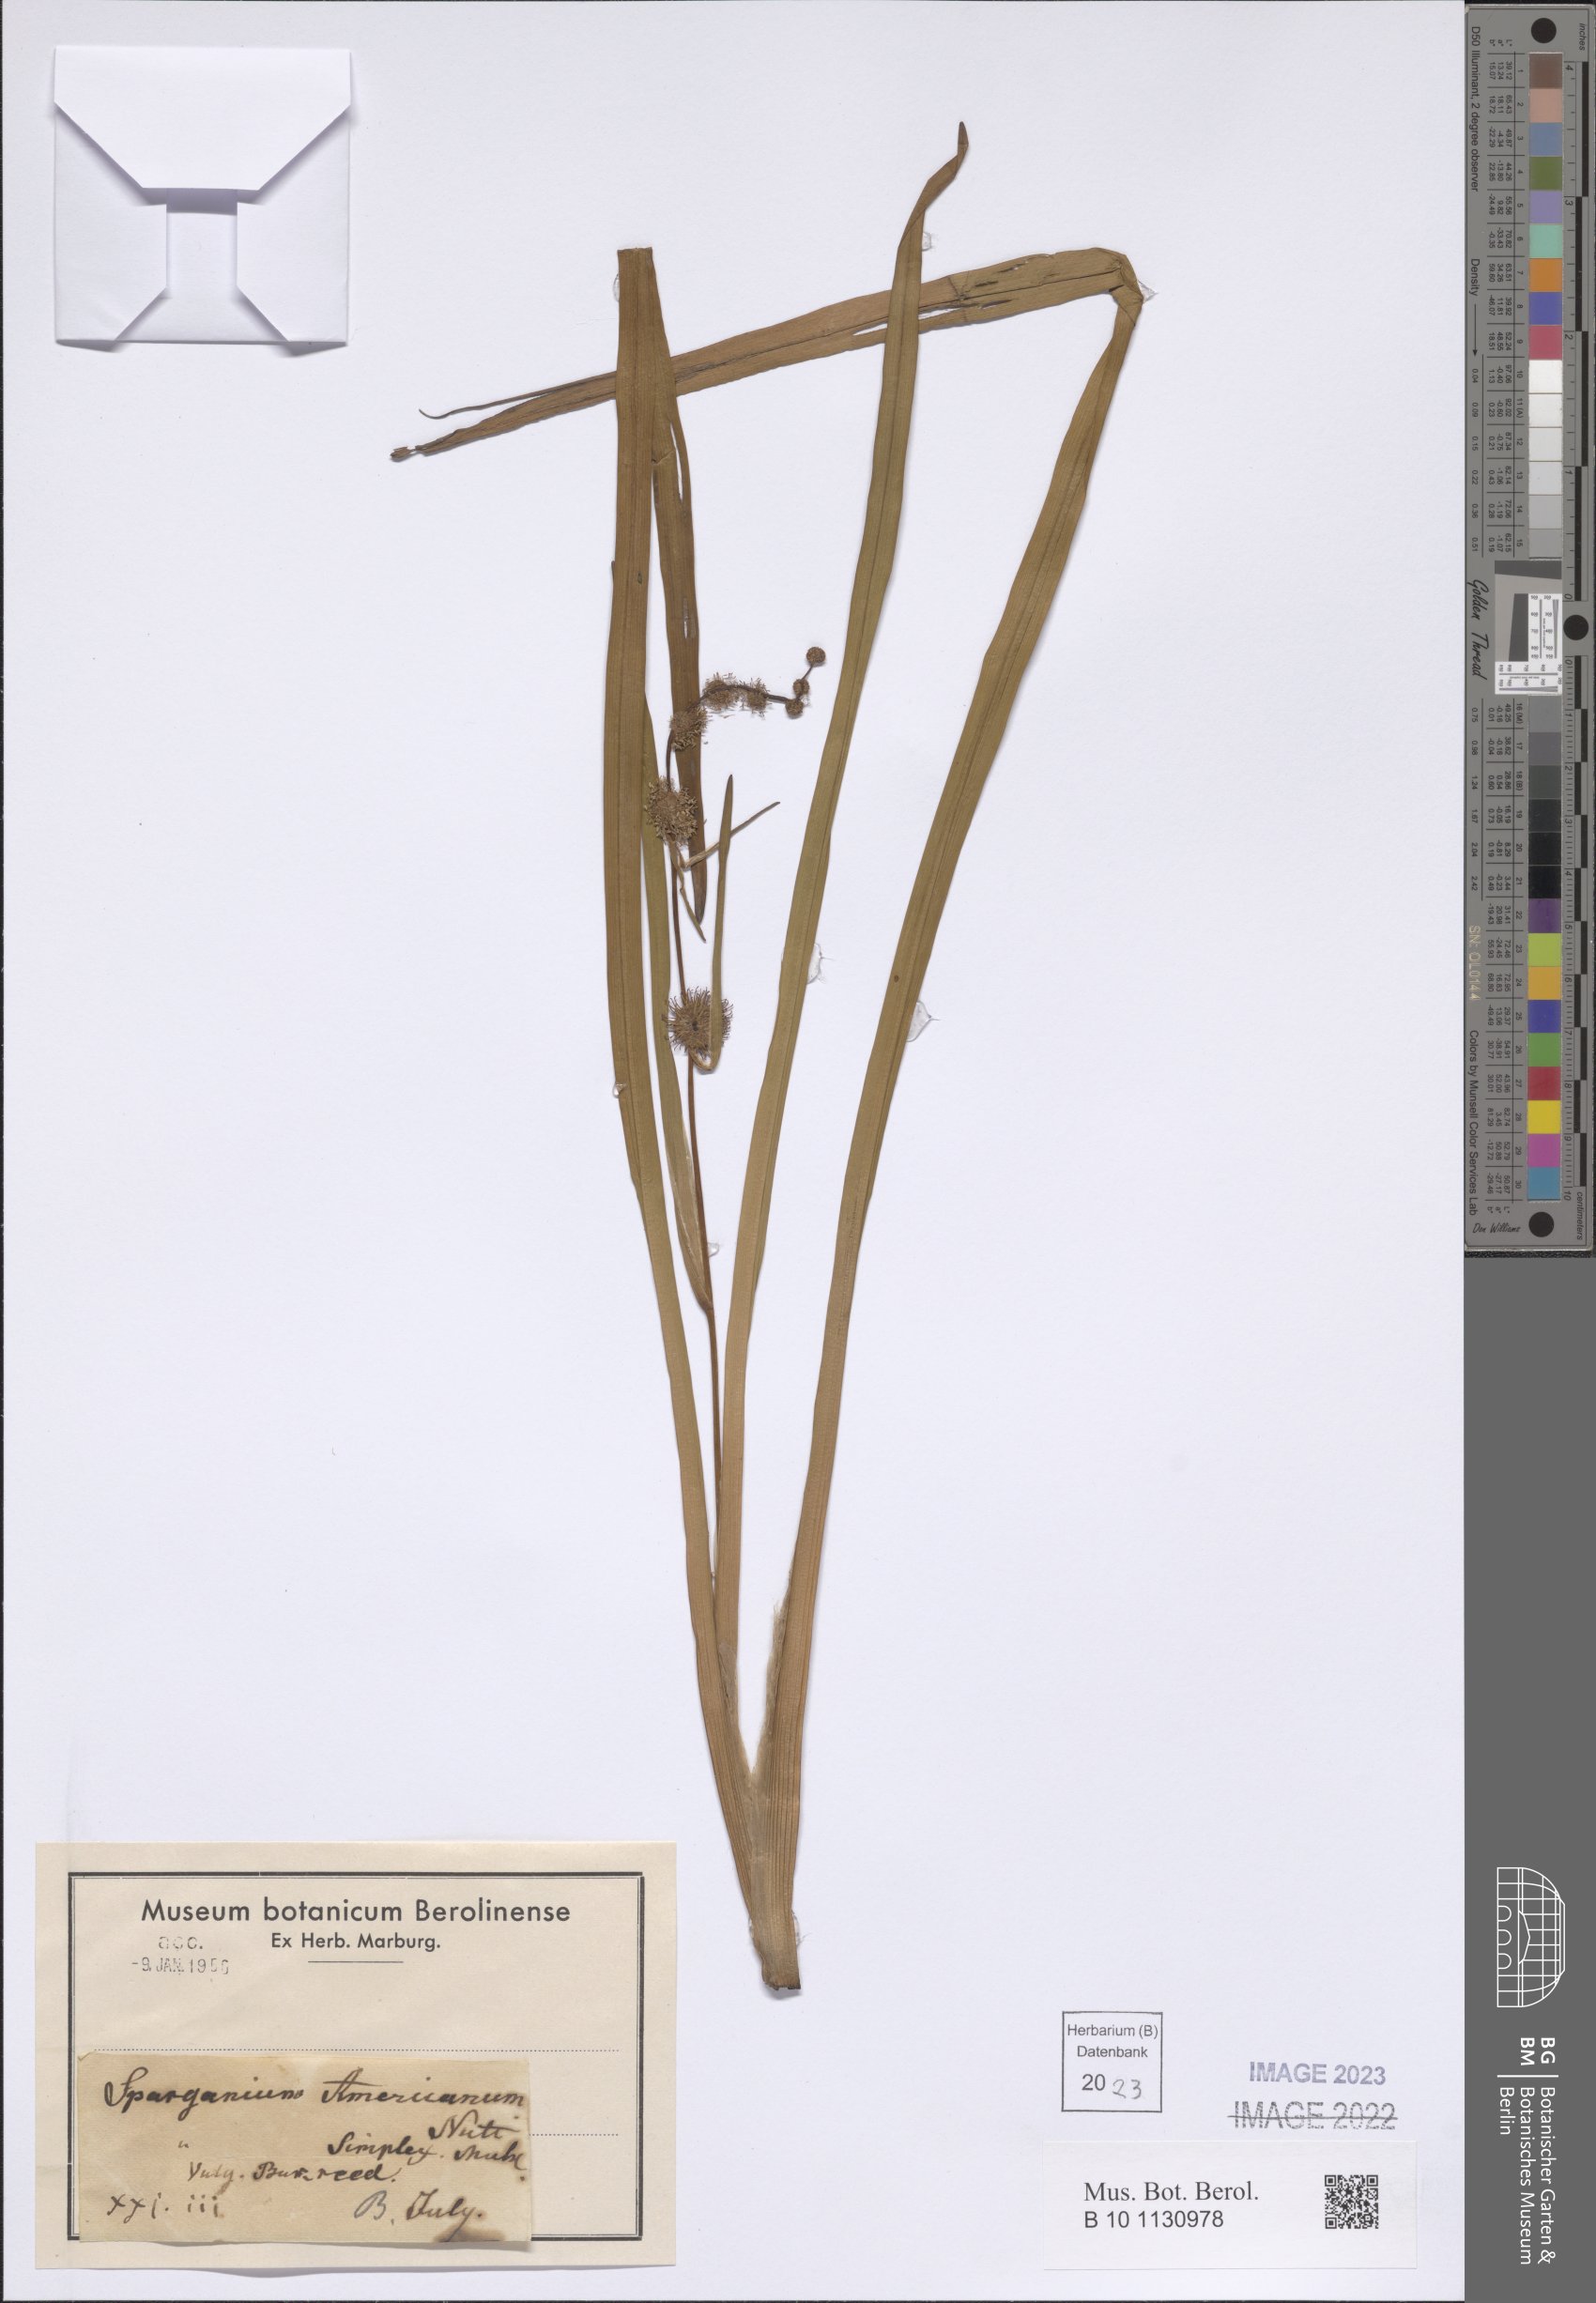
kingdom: Plantae
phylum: Tracheophyta
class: Liliopsida
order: Poales
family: Typhaceae
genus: Sparganium
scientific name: Sparganium americanum
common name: American burreed
